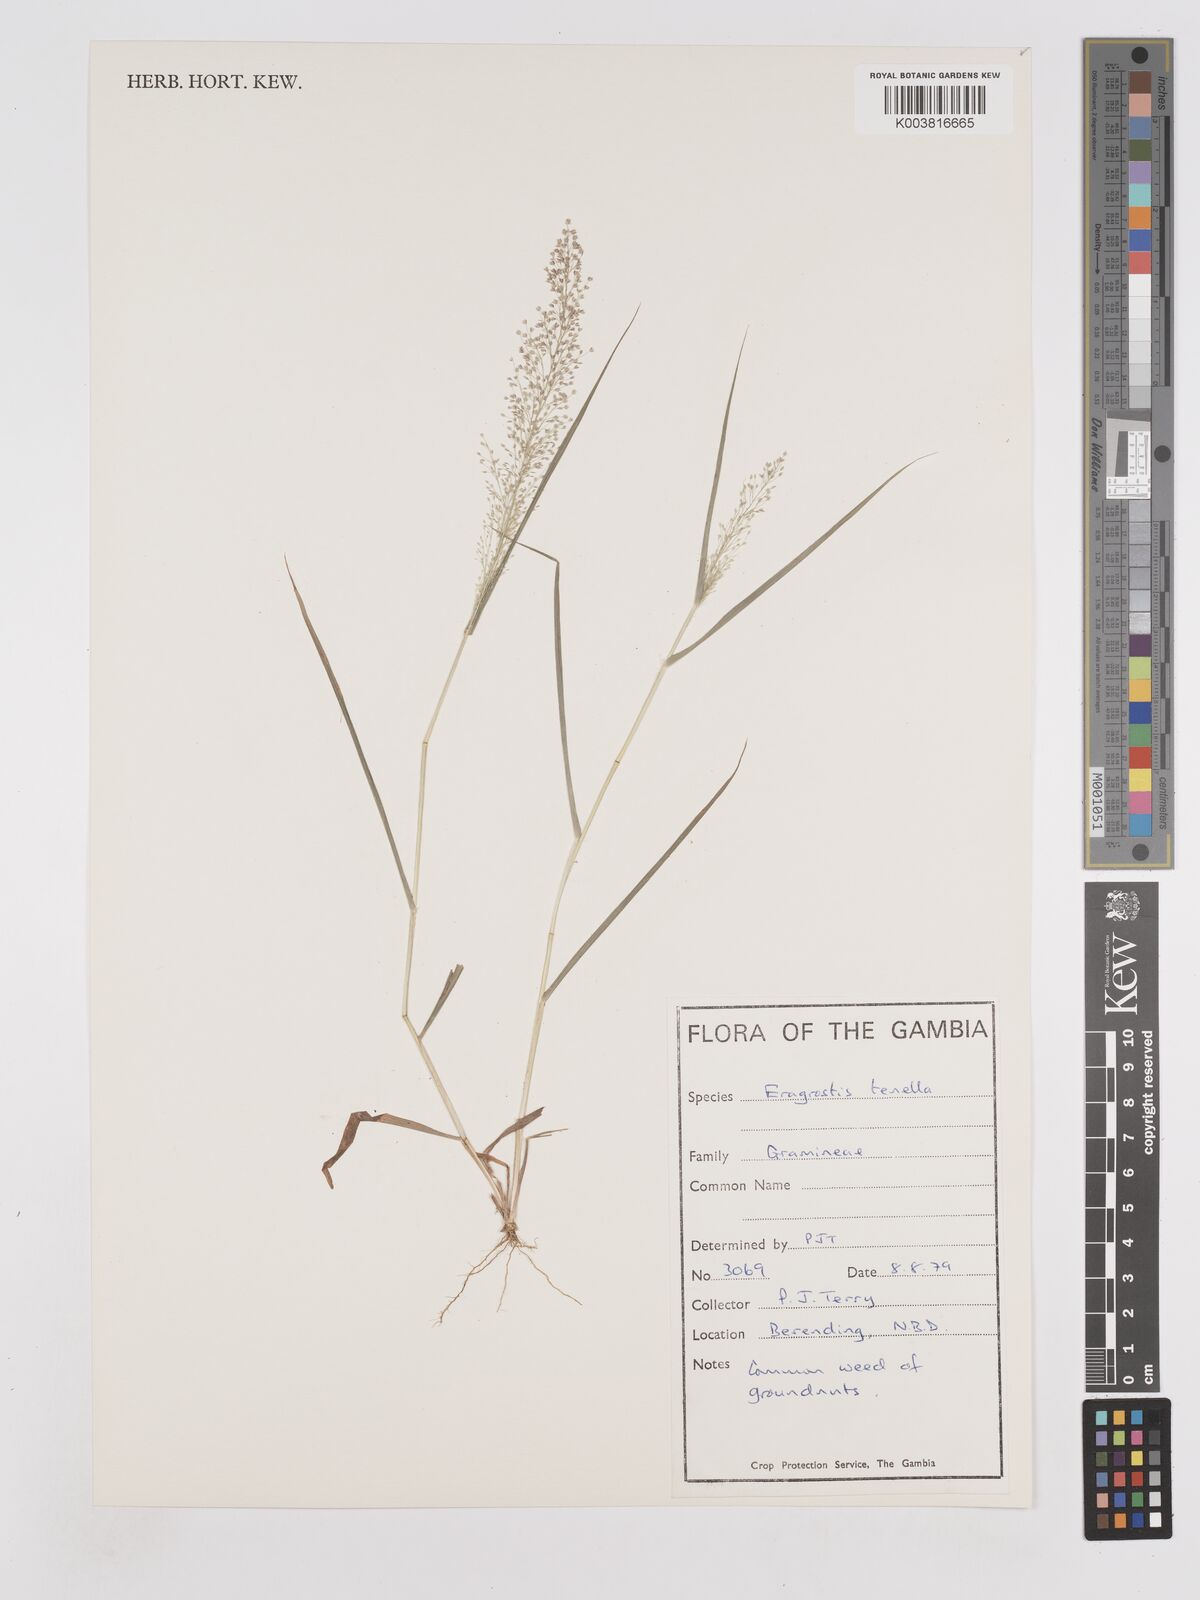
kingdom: Plantae
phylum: Tracheophyta
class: Liliopsida
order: Poales
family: Poaceae
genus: Eragrostis
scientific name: Eragrostis tenella
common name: Japanese lovegrass
